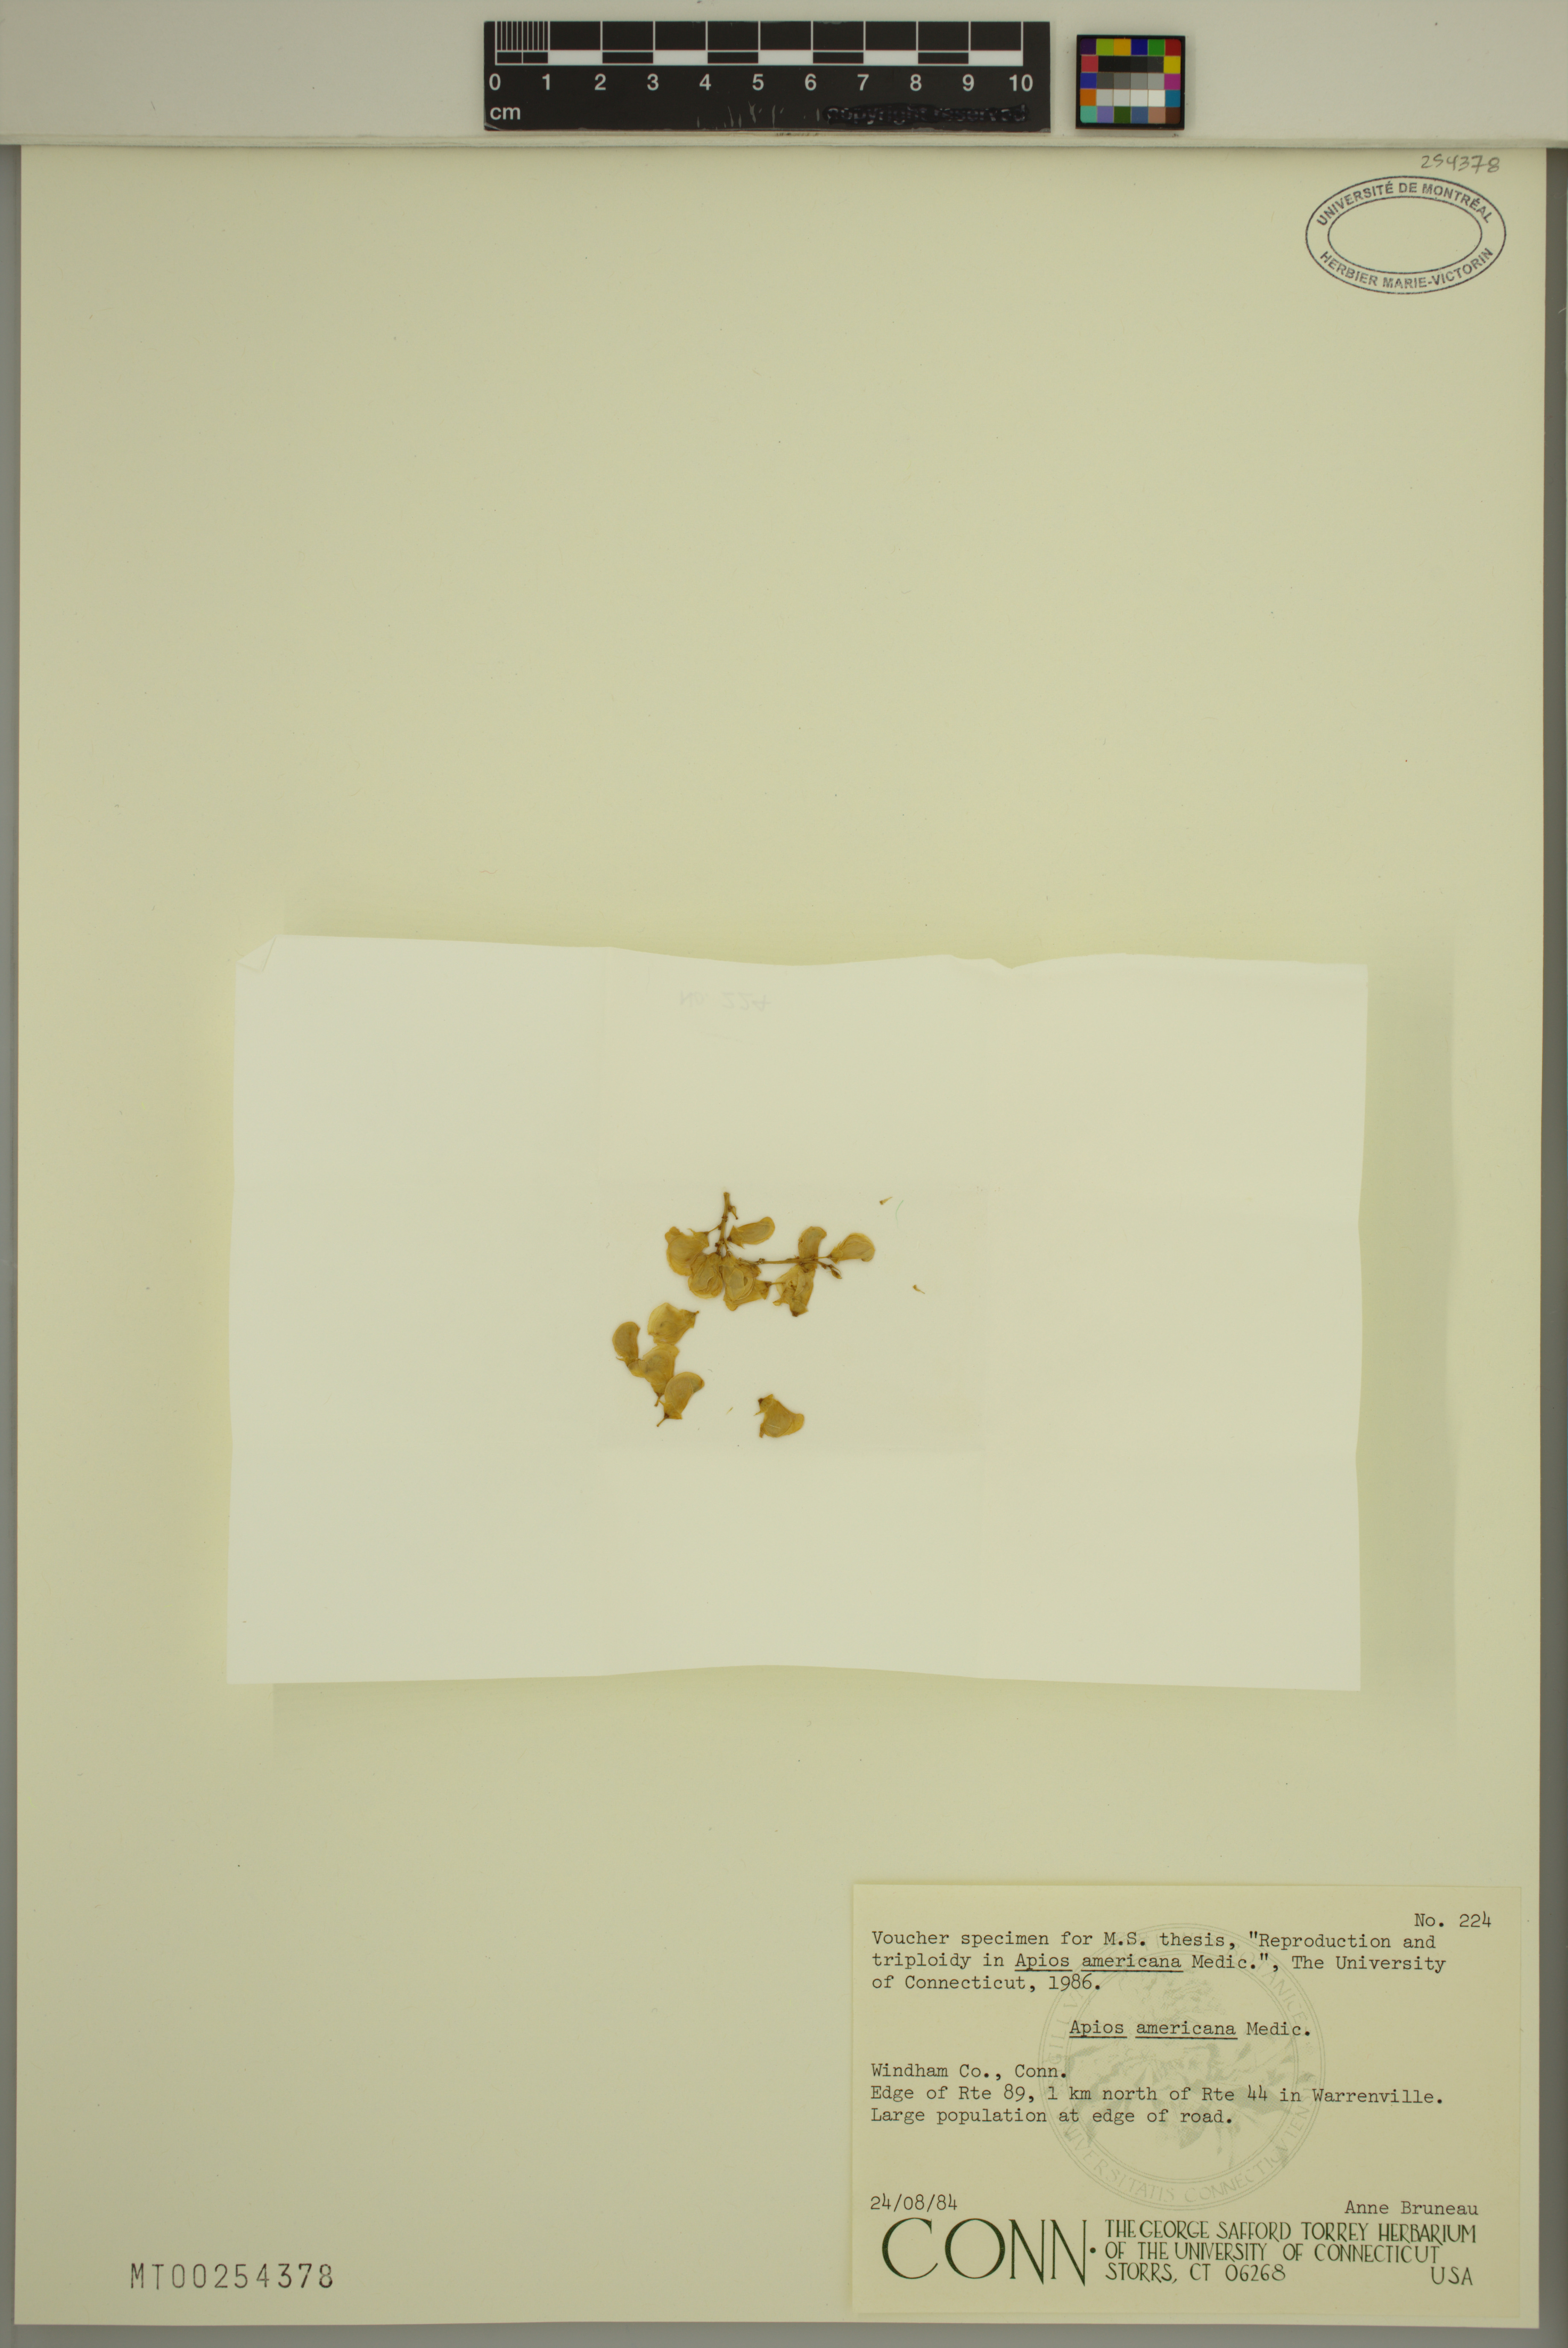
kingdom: Plantae
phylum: Tracheophyta
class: Magnoliopsida
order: Fabales
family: Fabaceae
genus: Apios
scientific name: Apios americana
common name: American potato-bean
